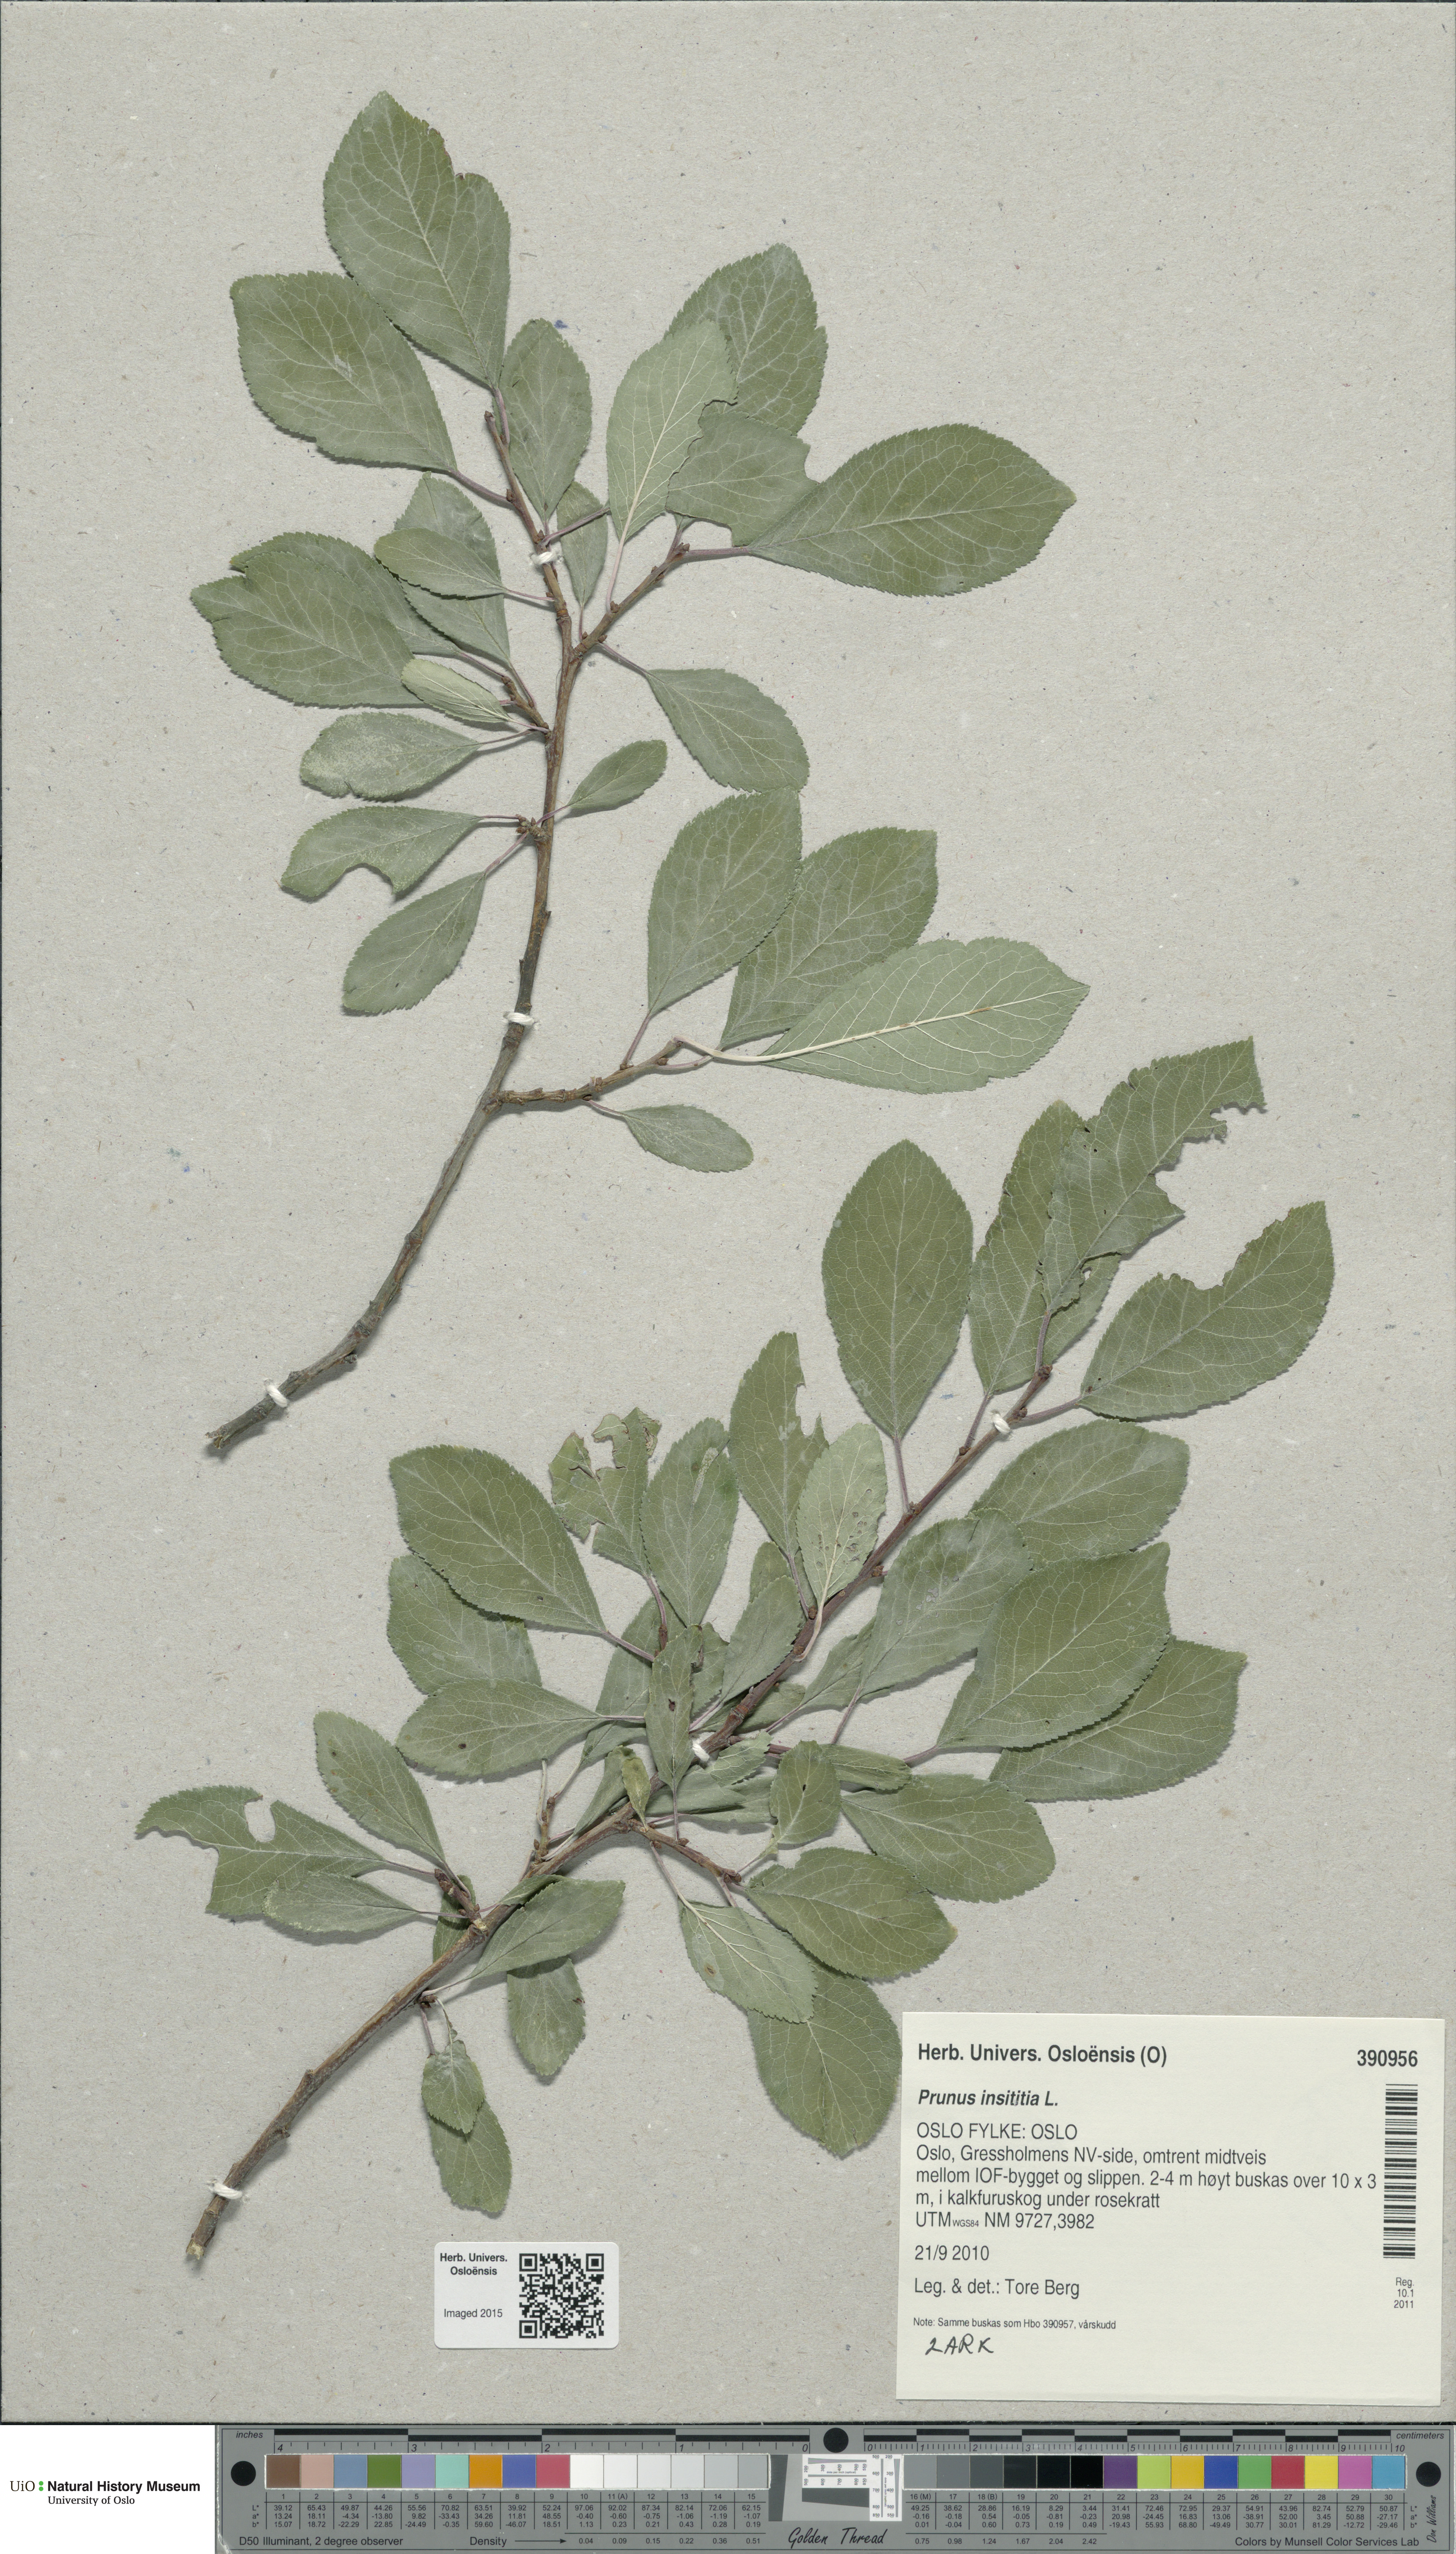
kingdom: Plantae
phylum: Tracheophyta
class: Magnoliopsida
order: Rosales
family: Rosaceae
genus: Prunus
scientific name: Prunus domestica
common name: Wild plum
